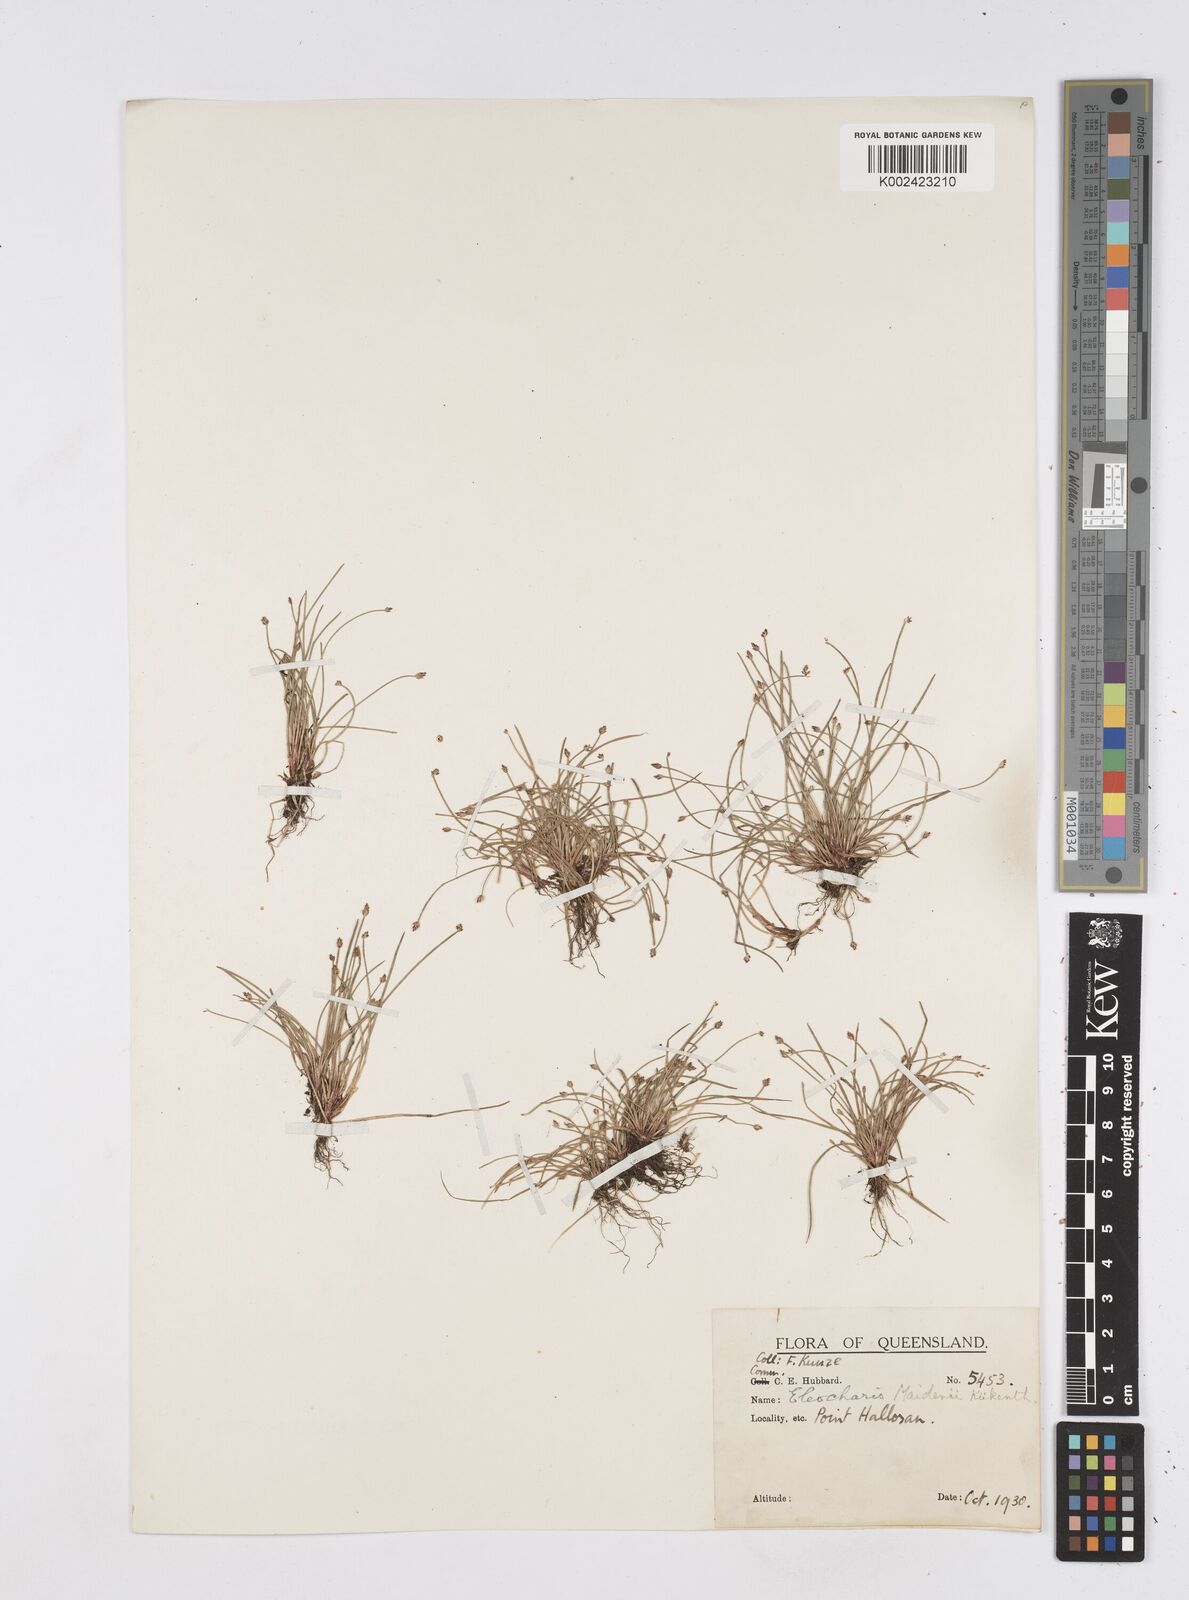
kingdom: Plantae
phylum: Tracheophyta
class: Liliopsida
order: Poales
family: Cyperaceae
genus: Eleocharis
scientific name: Eleocharis minuta
